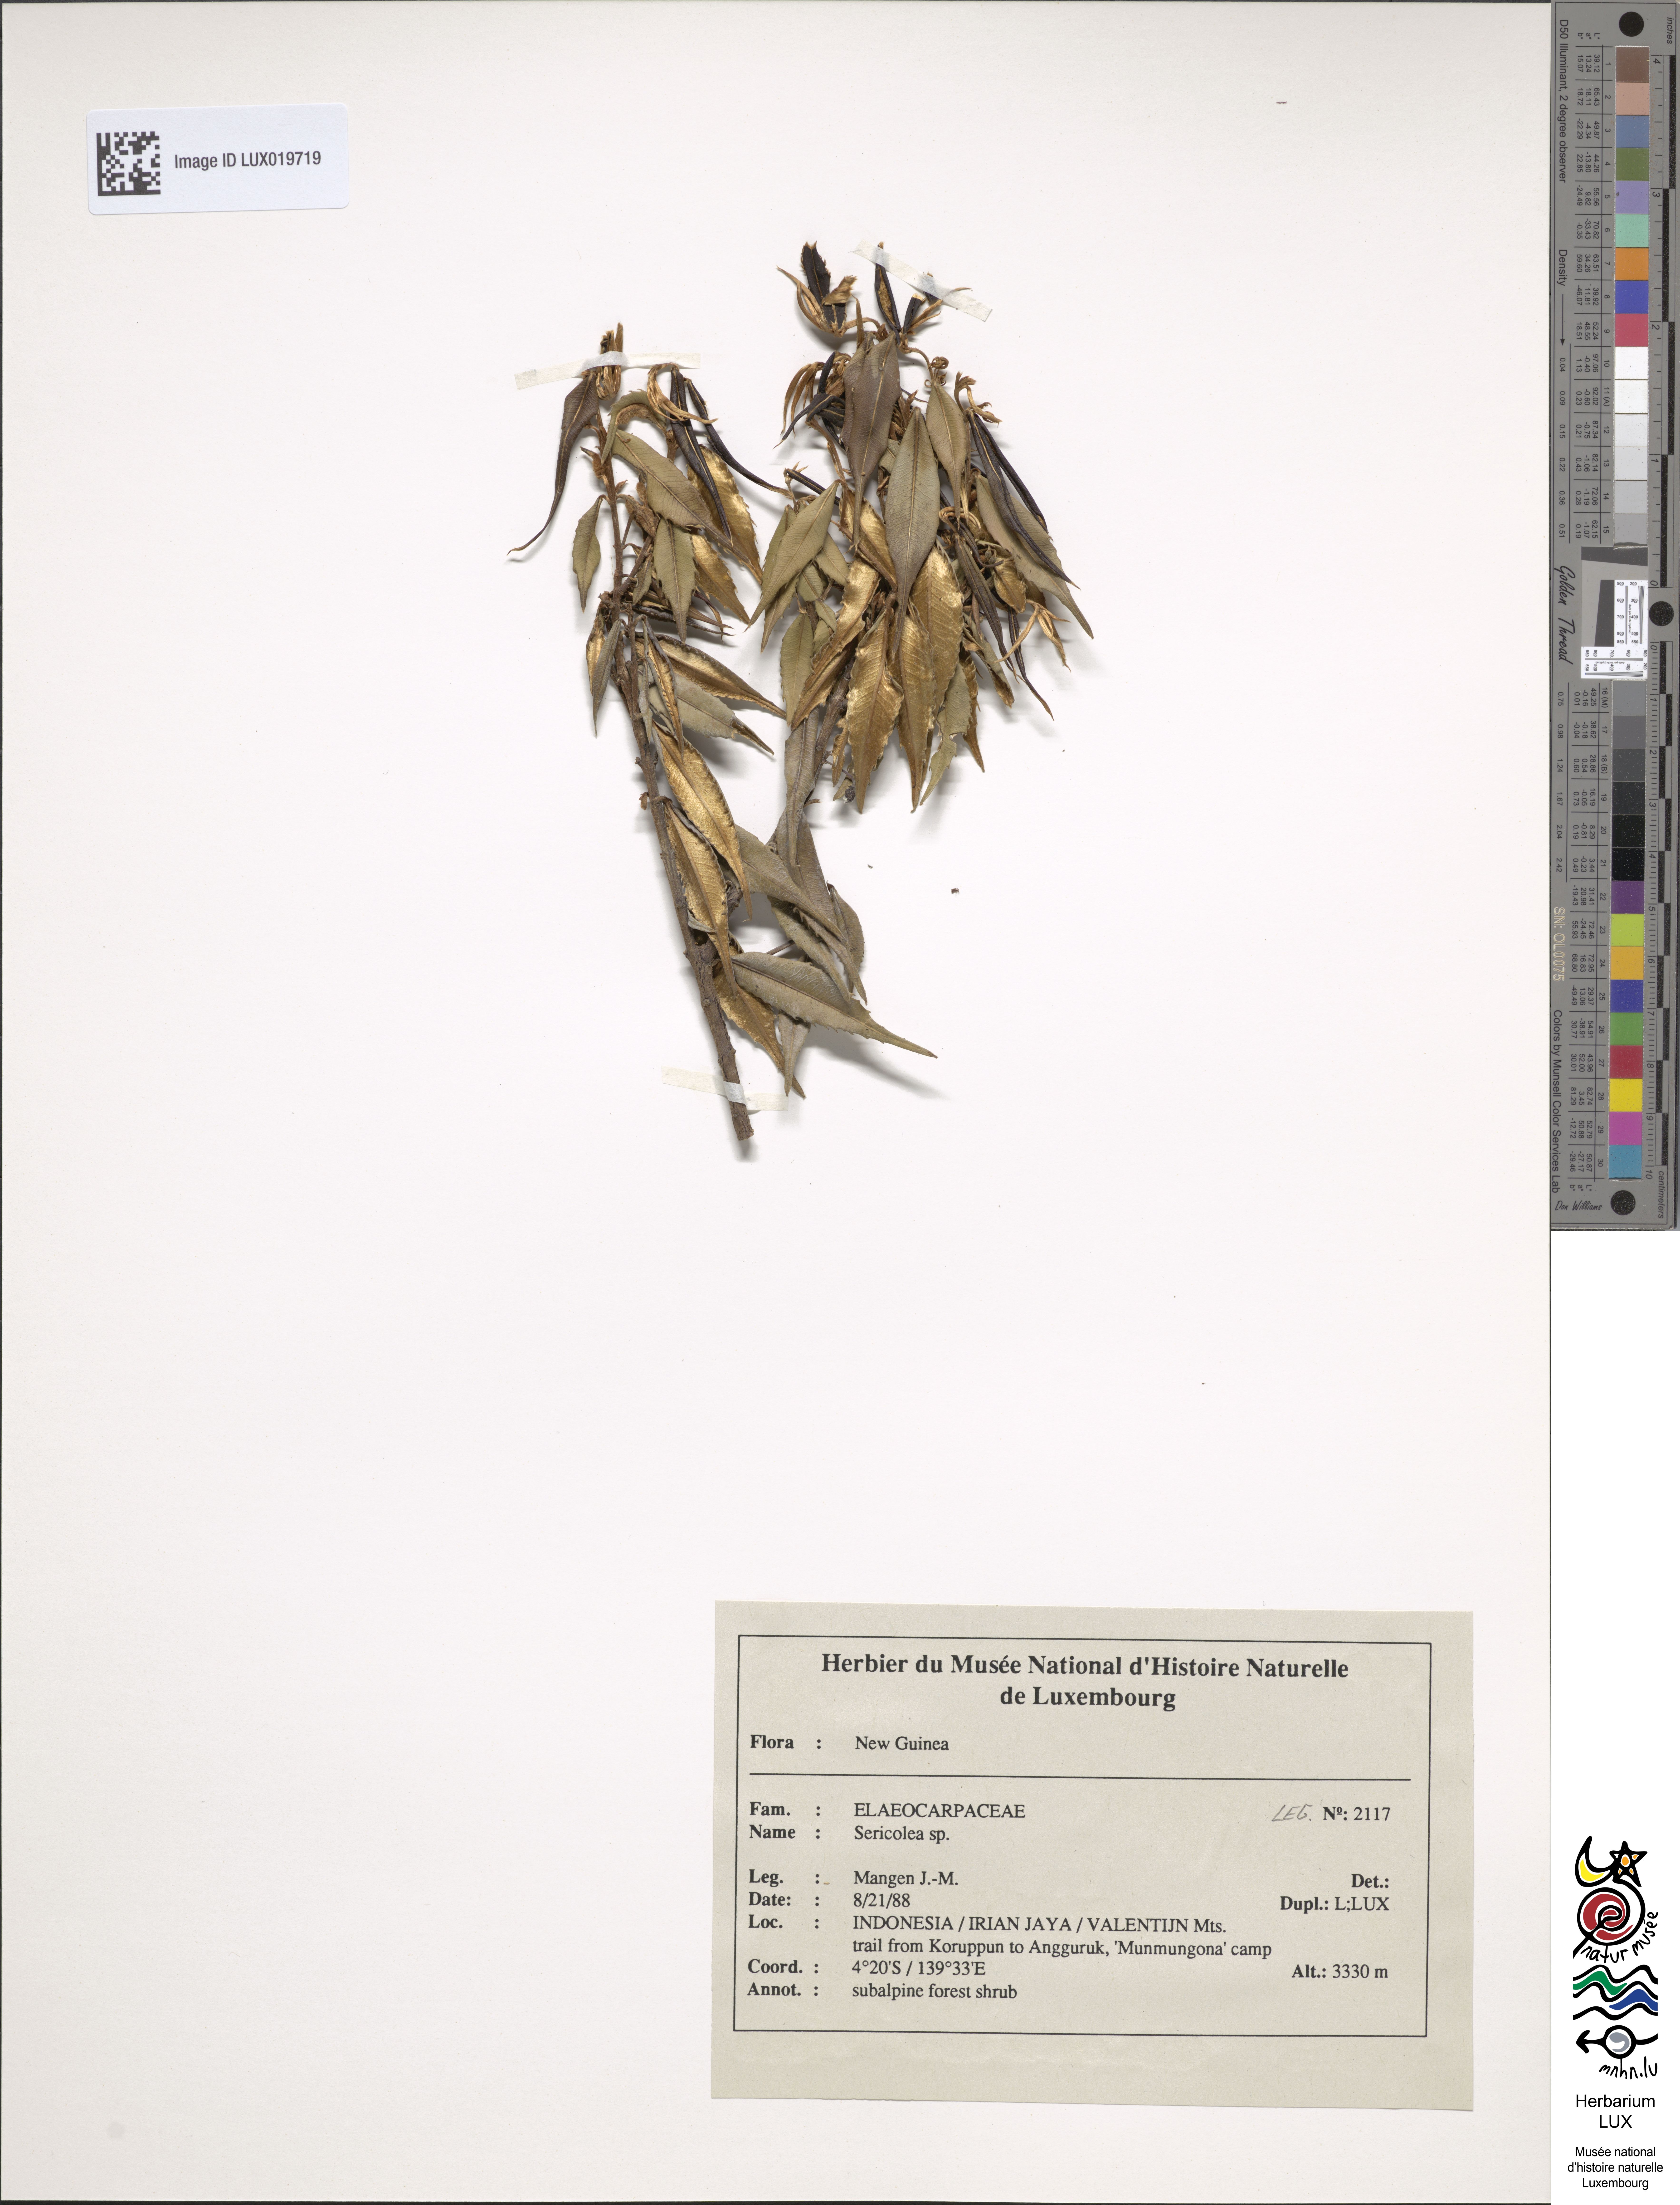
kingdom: Plantae
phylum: Tracheophyta
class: Magnoliopsida
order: Oxalidales
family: Elaeocarpaceae
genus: Sericolea
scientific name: Sericolea
